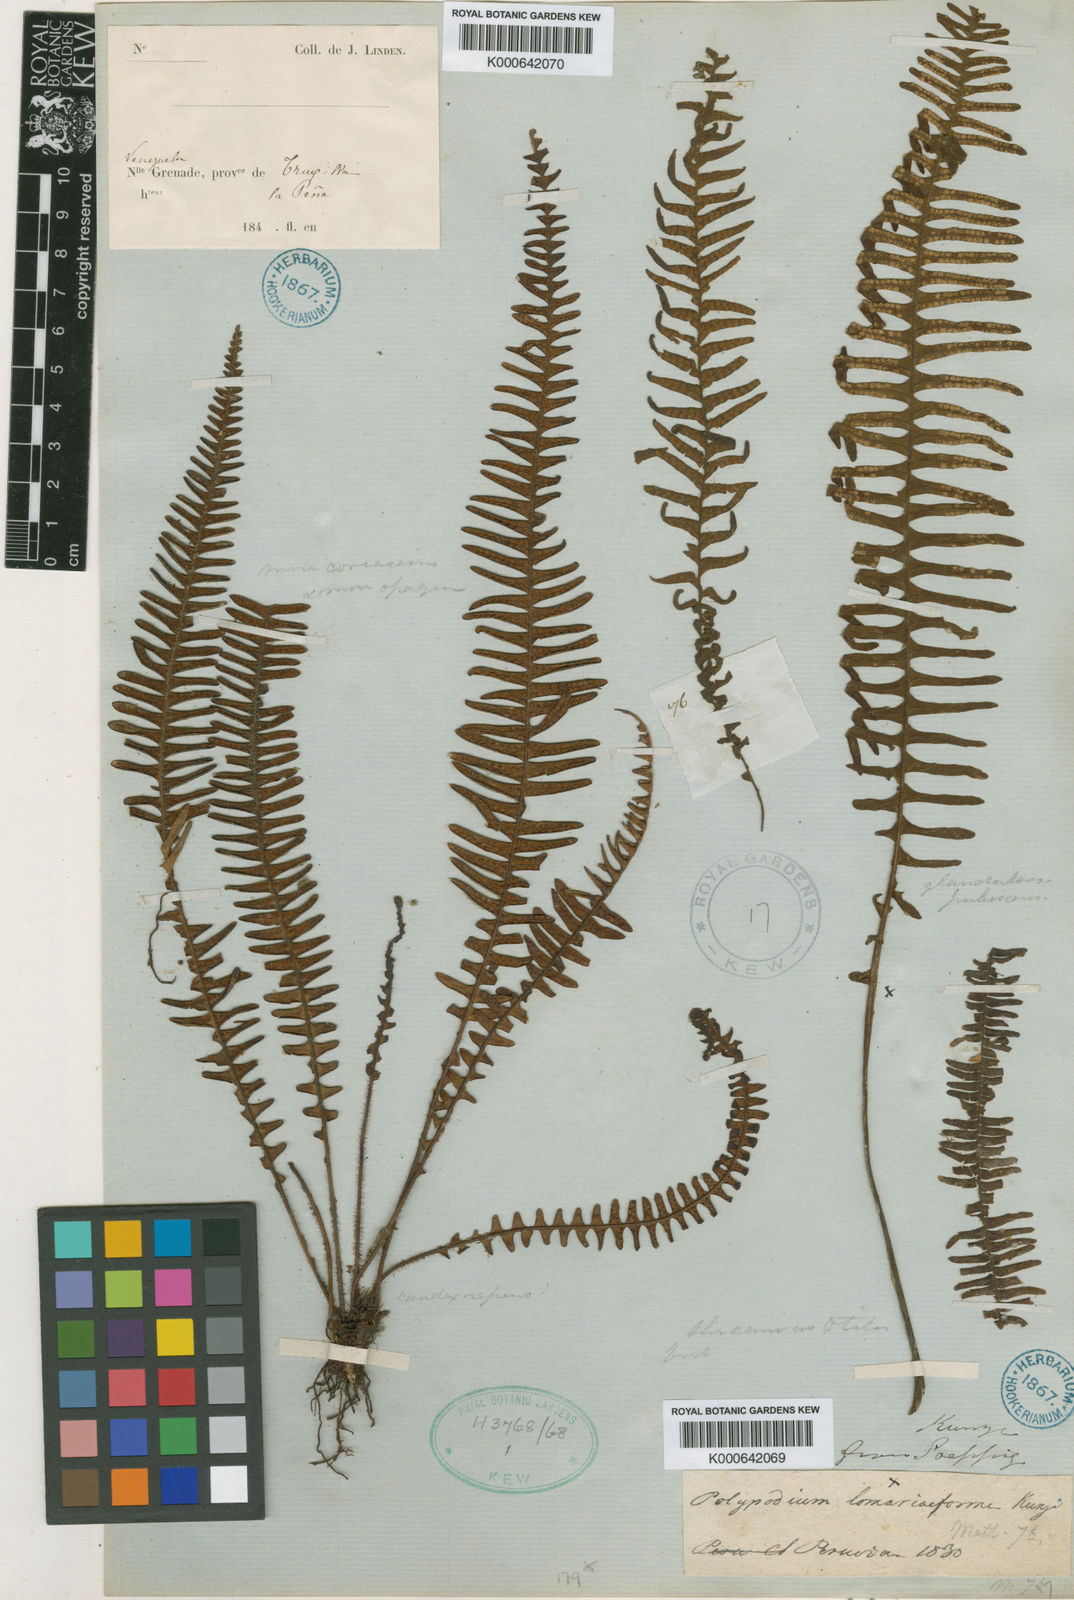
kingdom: Plantae
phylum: Tracheophyta
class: Polypodiopsida
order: Polypodiales
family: Polypodiaceae
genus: Polypodium
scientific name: Polypodium
